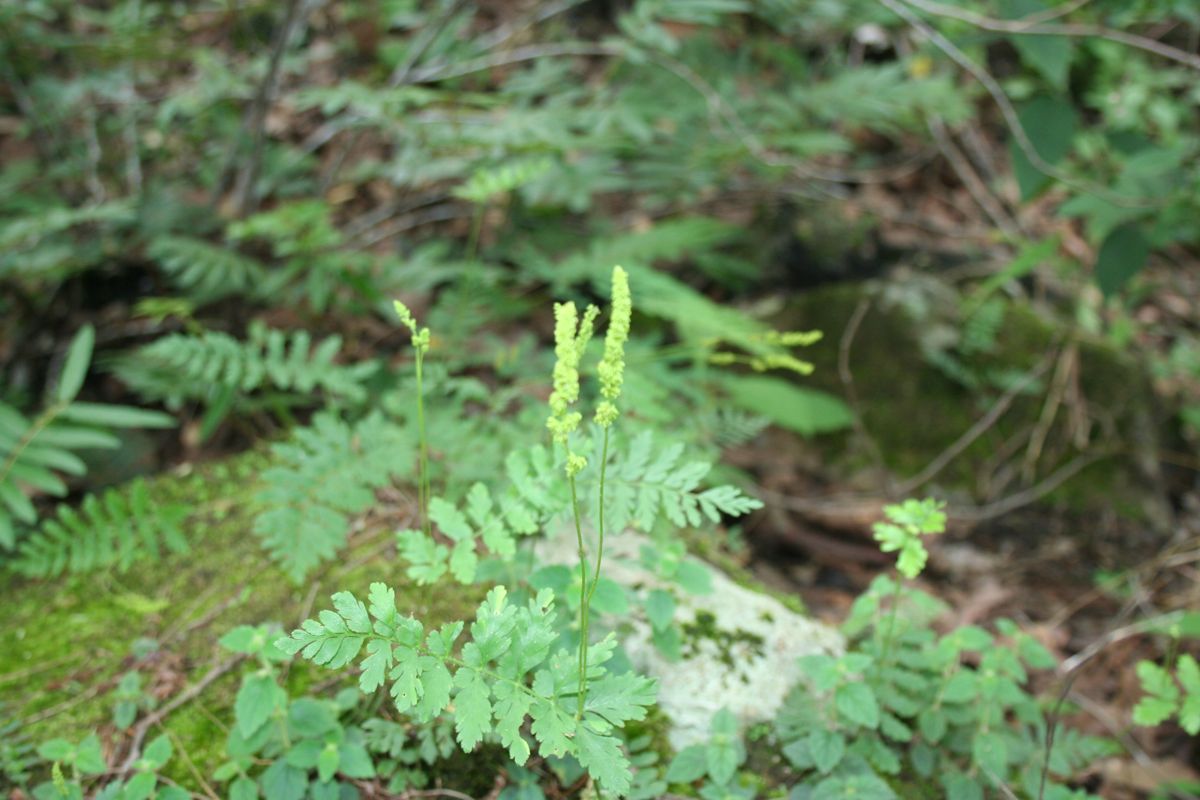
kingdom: Plantae
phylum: Tracheophyta
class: Polypodiopsida
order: Schizaeales
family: Anemiaceae
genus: Anemia
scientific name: Anemia hirsuta
